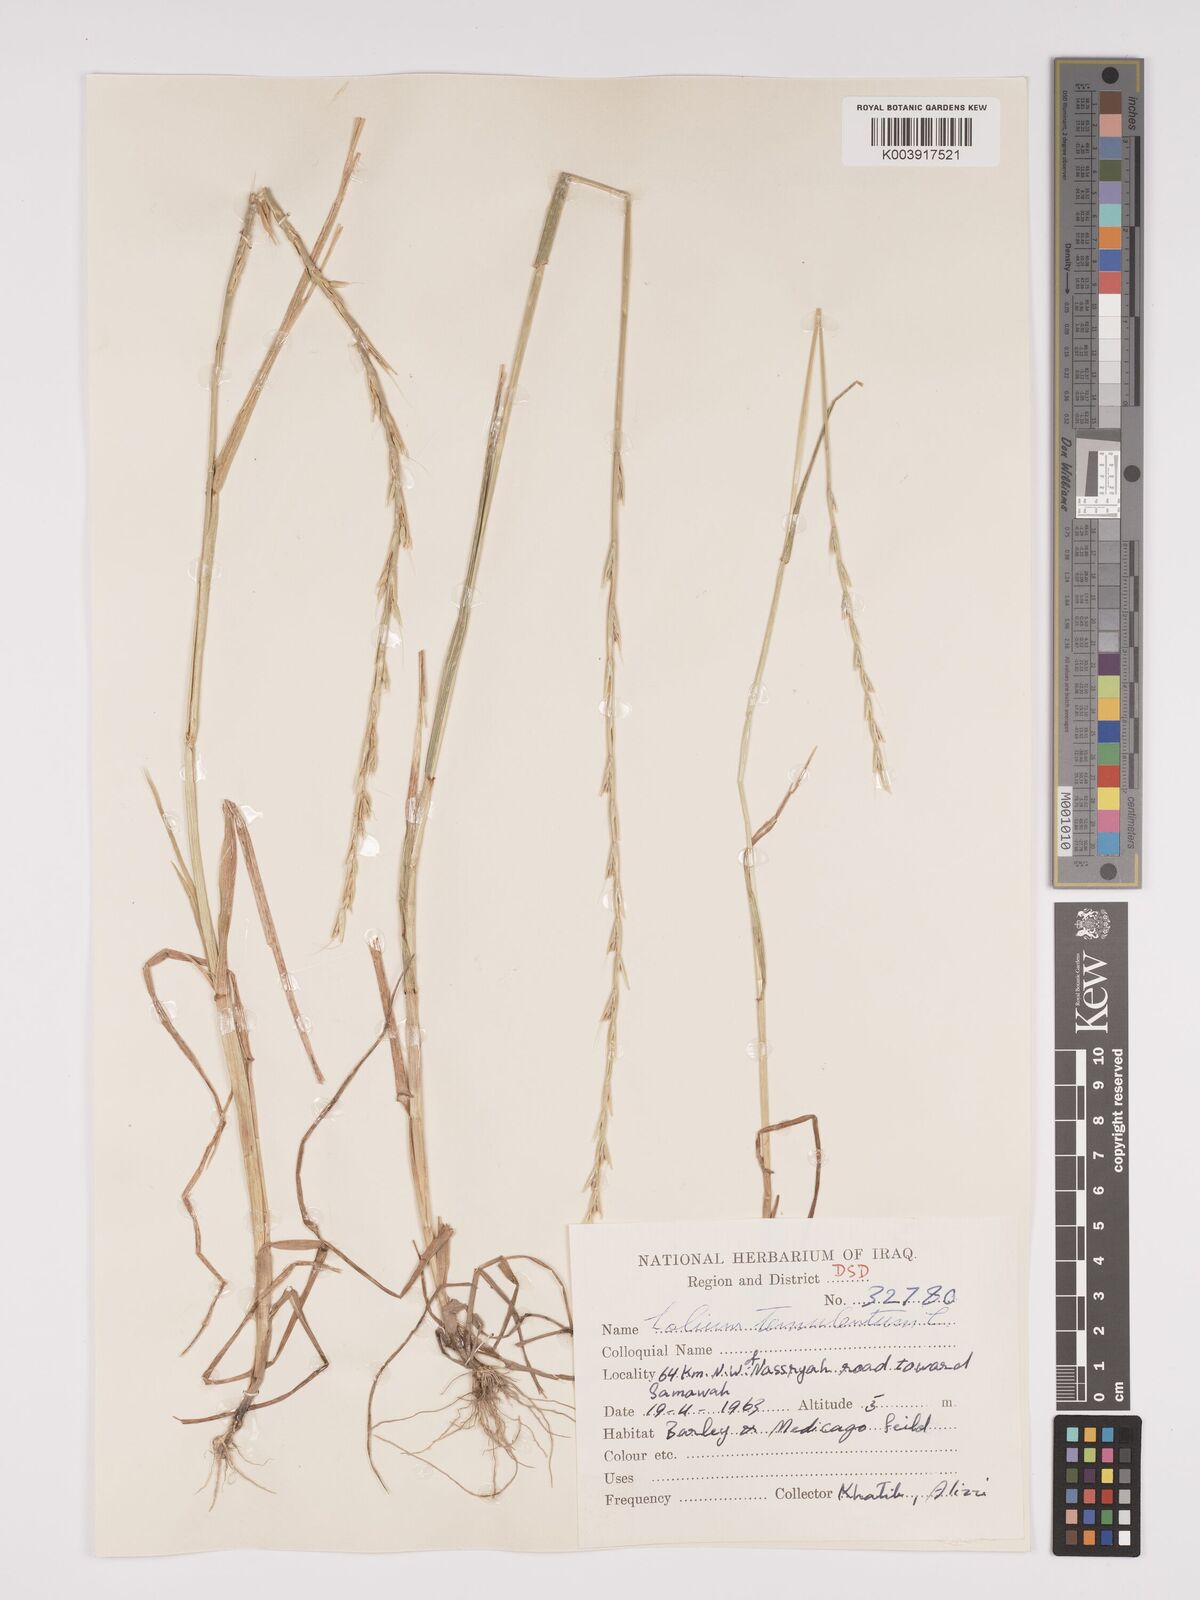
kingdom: Plantae
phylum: Tracheophyta
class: Liliopsida
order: Poales
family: Poaceae
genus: Lolium
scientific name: Lolium temulentum
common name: Darnel
